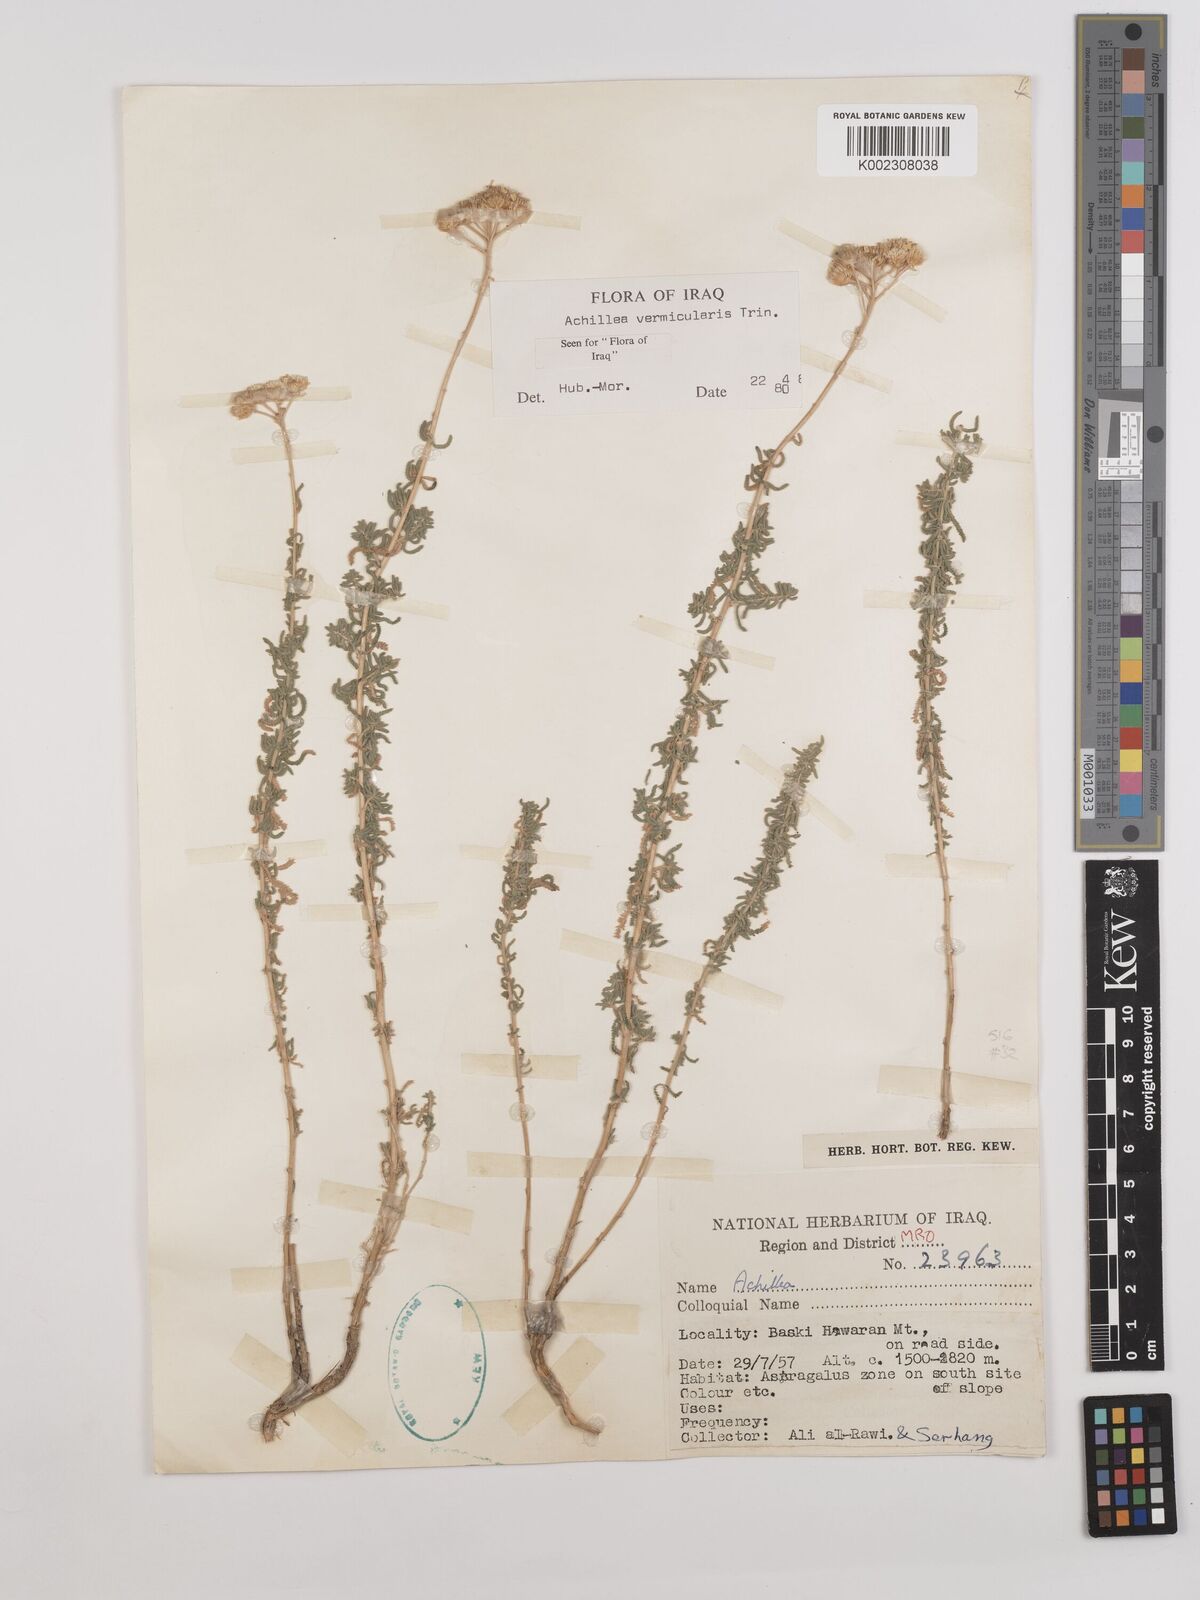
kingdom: Plantae
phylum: Tracheophyta
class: Magnoliopsida
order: Asterales
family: Asteraceae
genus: Achillea
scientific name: Achillea vermicularis
